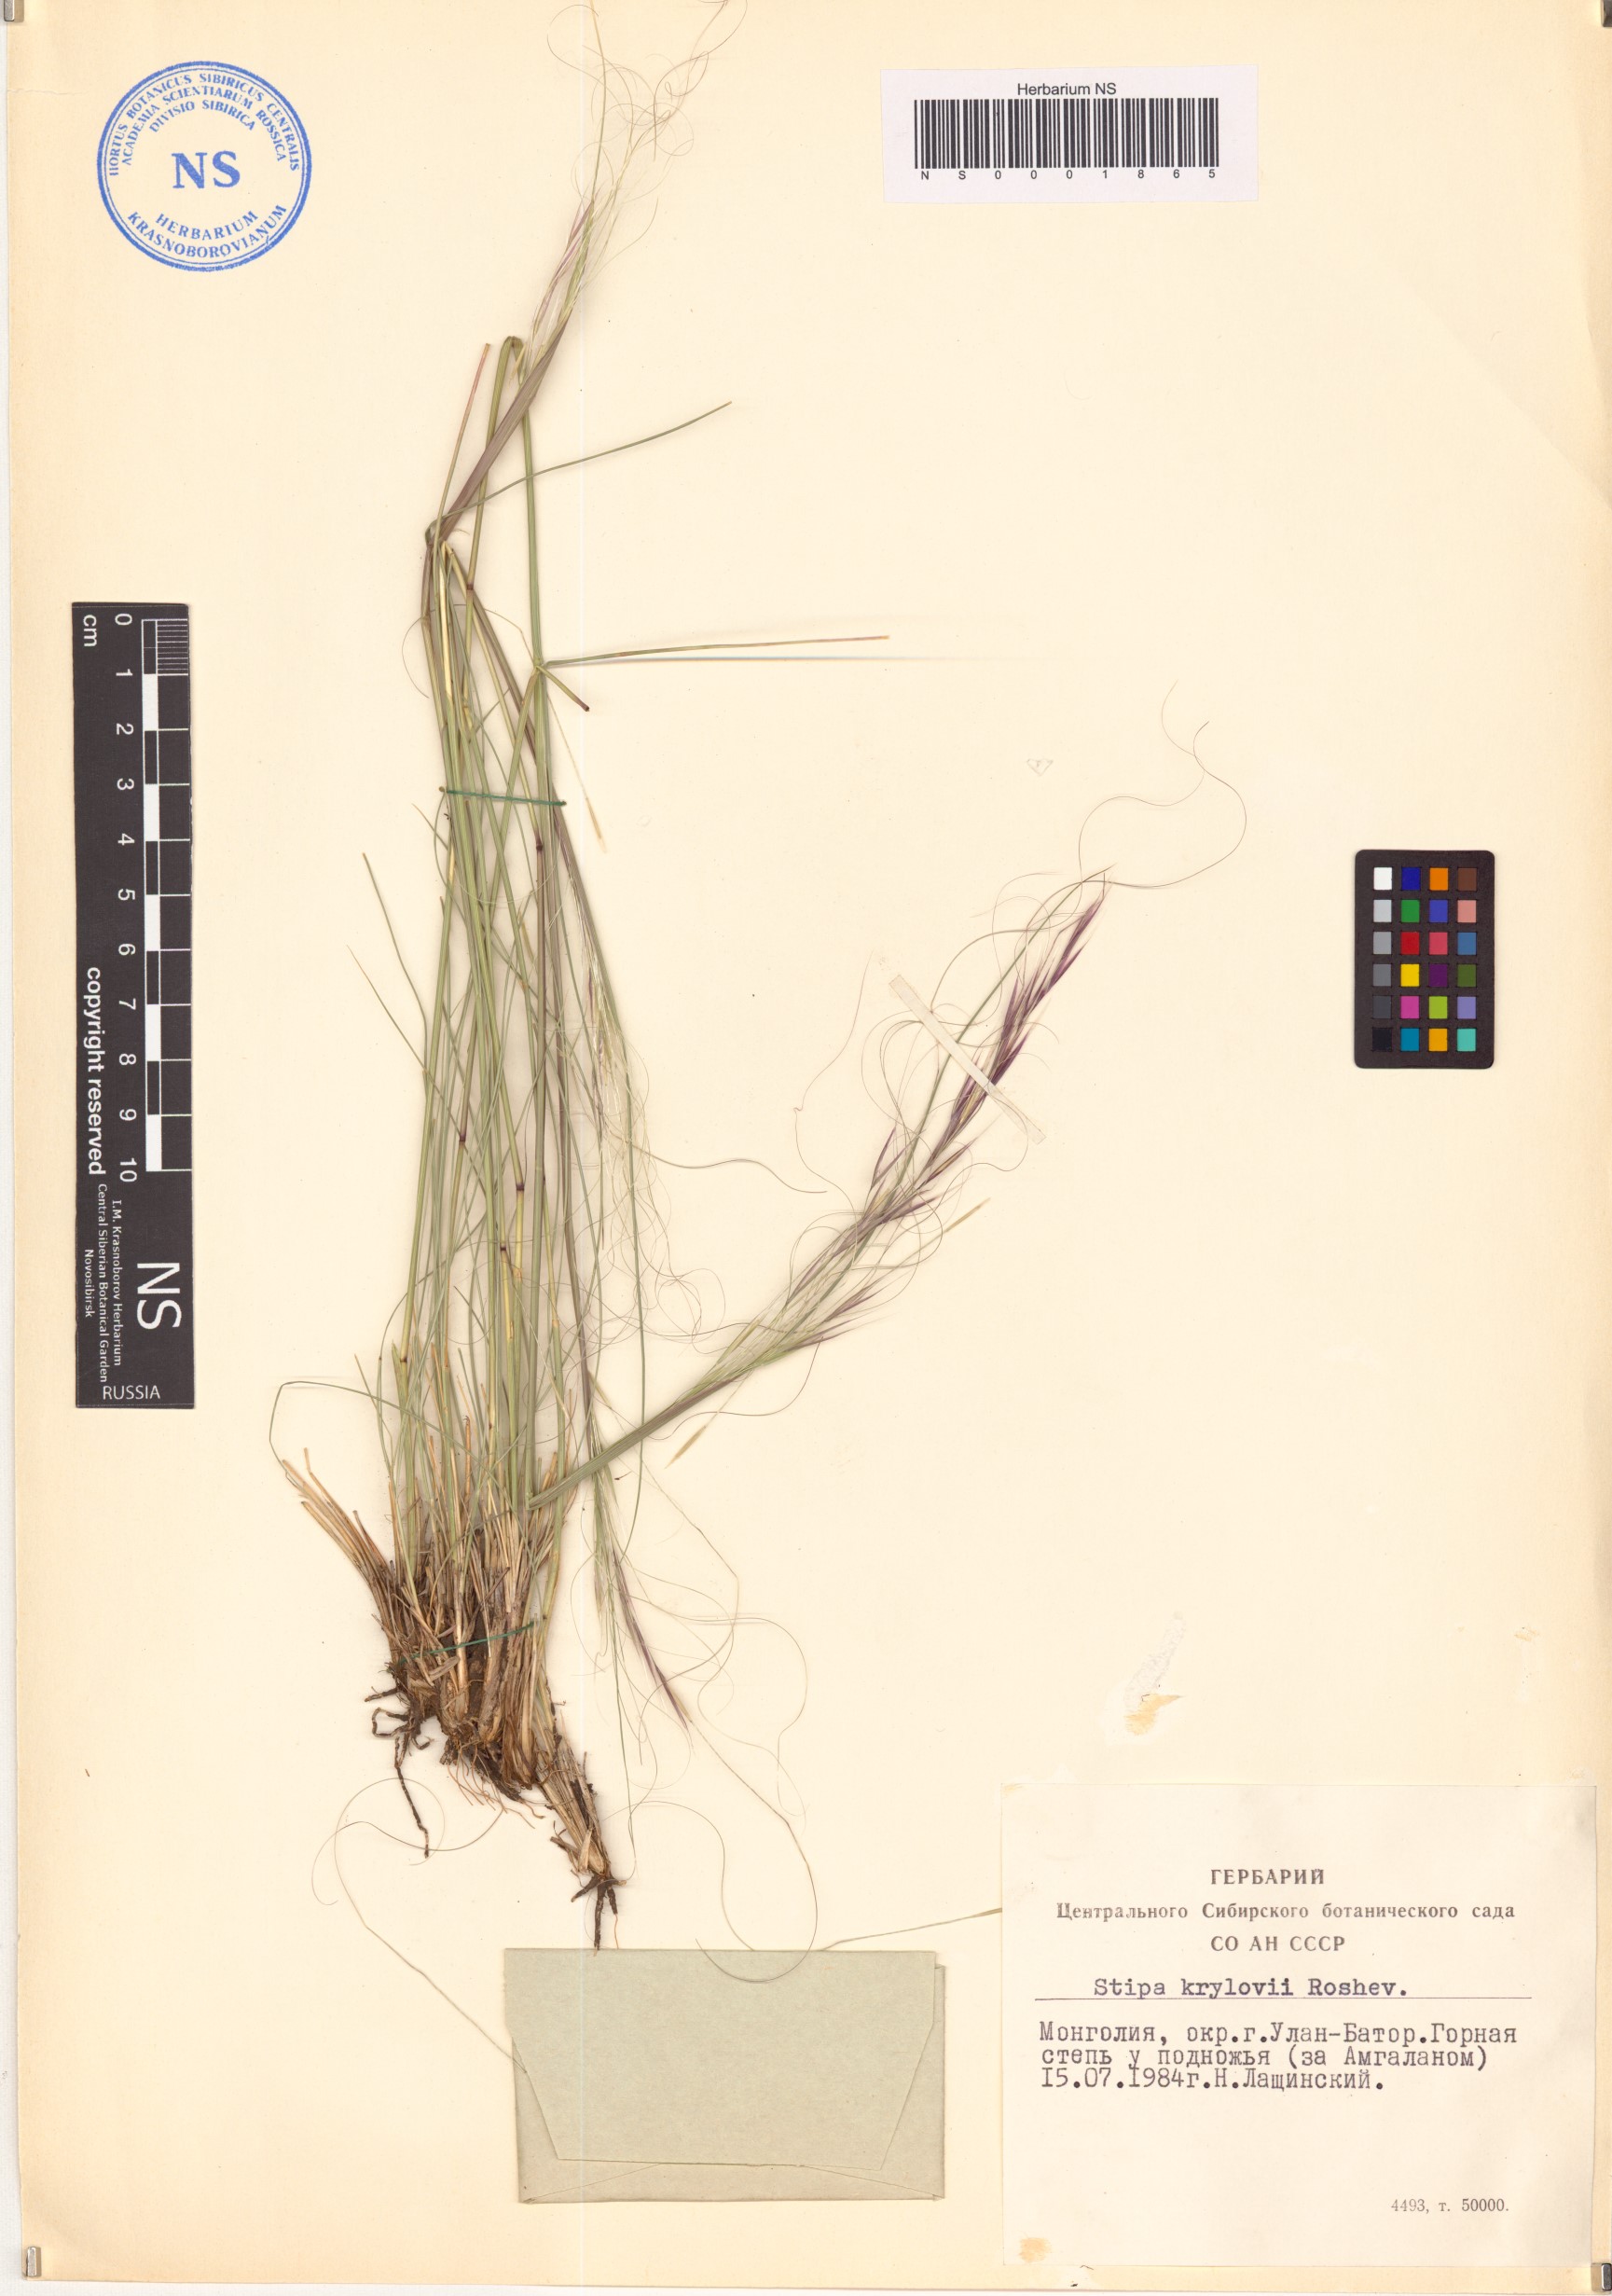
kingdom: Plantae
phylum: Tracheophyta
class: Liliopsida
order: Poales
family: Poaceae
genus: Stipa
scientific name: Stipa krylovii
